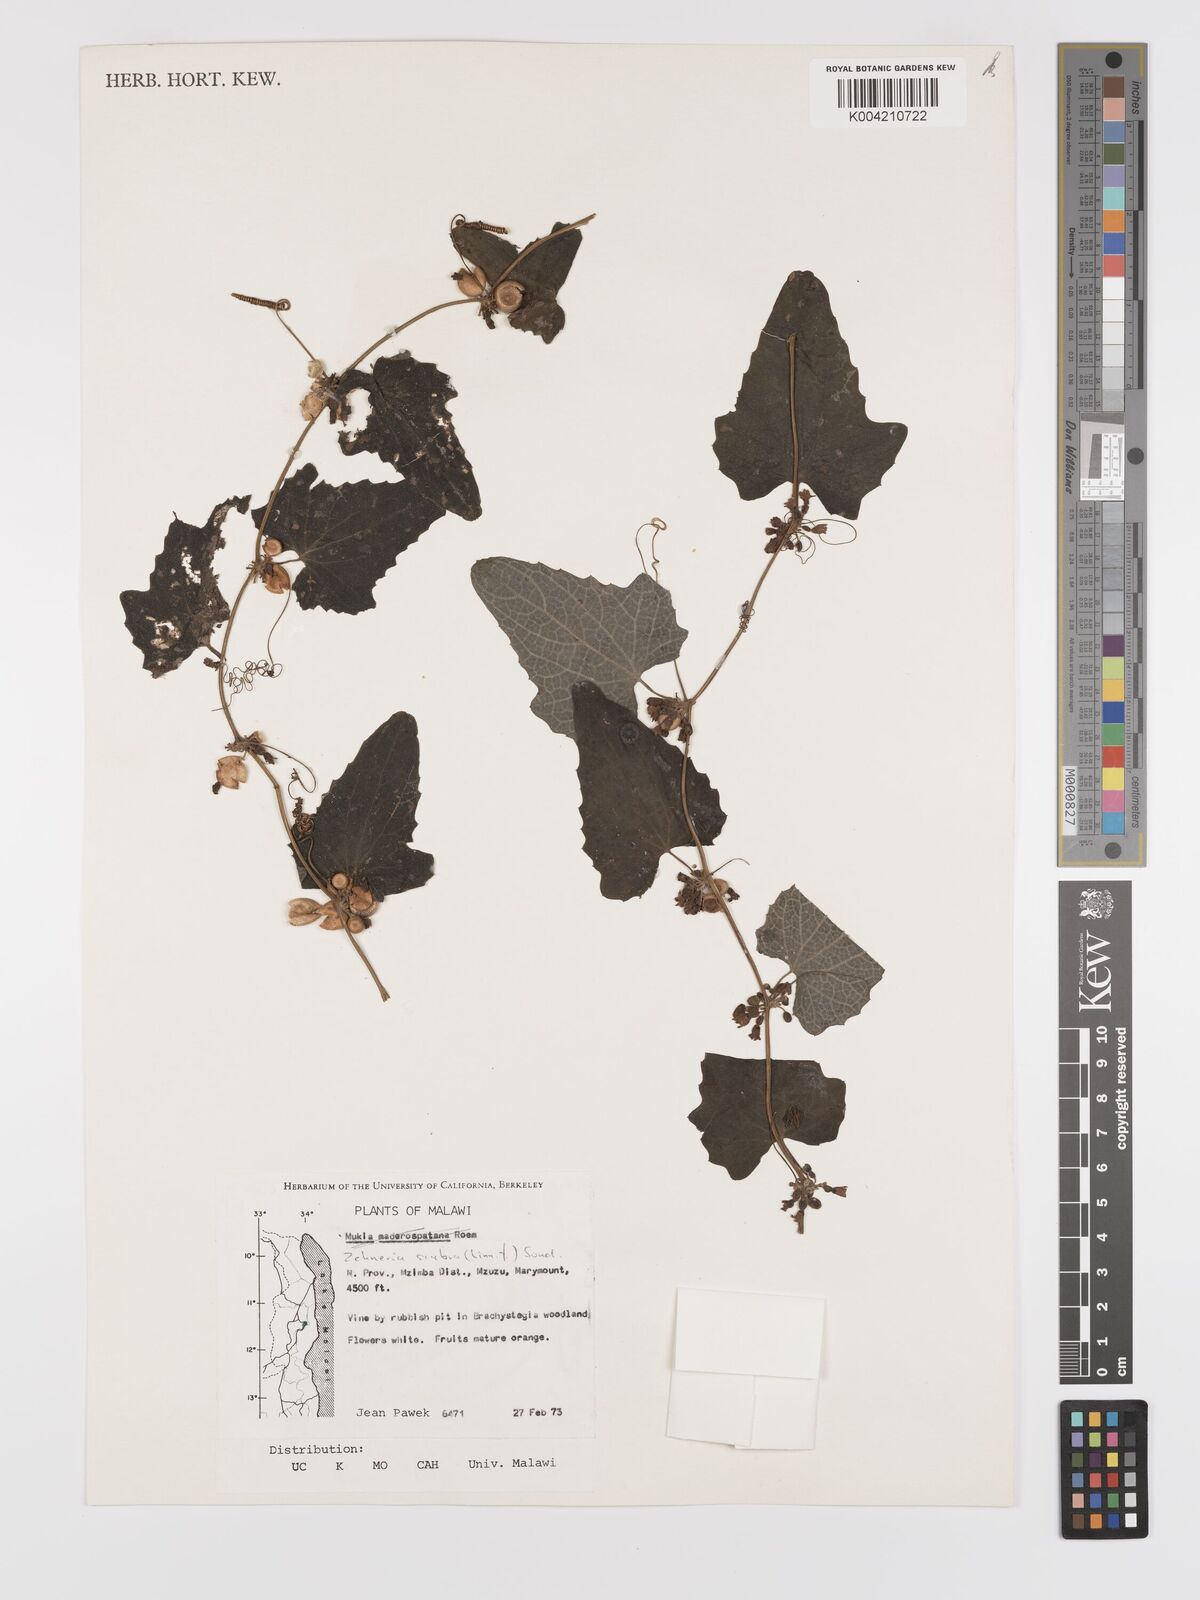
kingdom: Plantae
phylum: Tracheophyta
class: Magnoliopsida
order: Cucurbitales
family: Cucurbitaceae
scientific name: Cucurbitaceae
